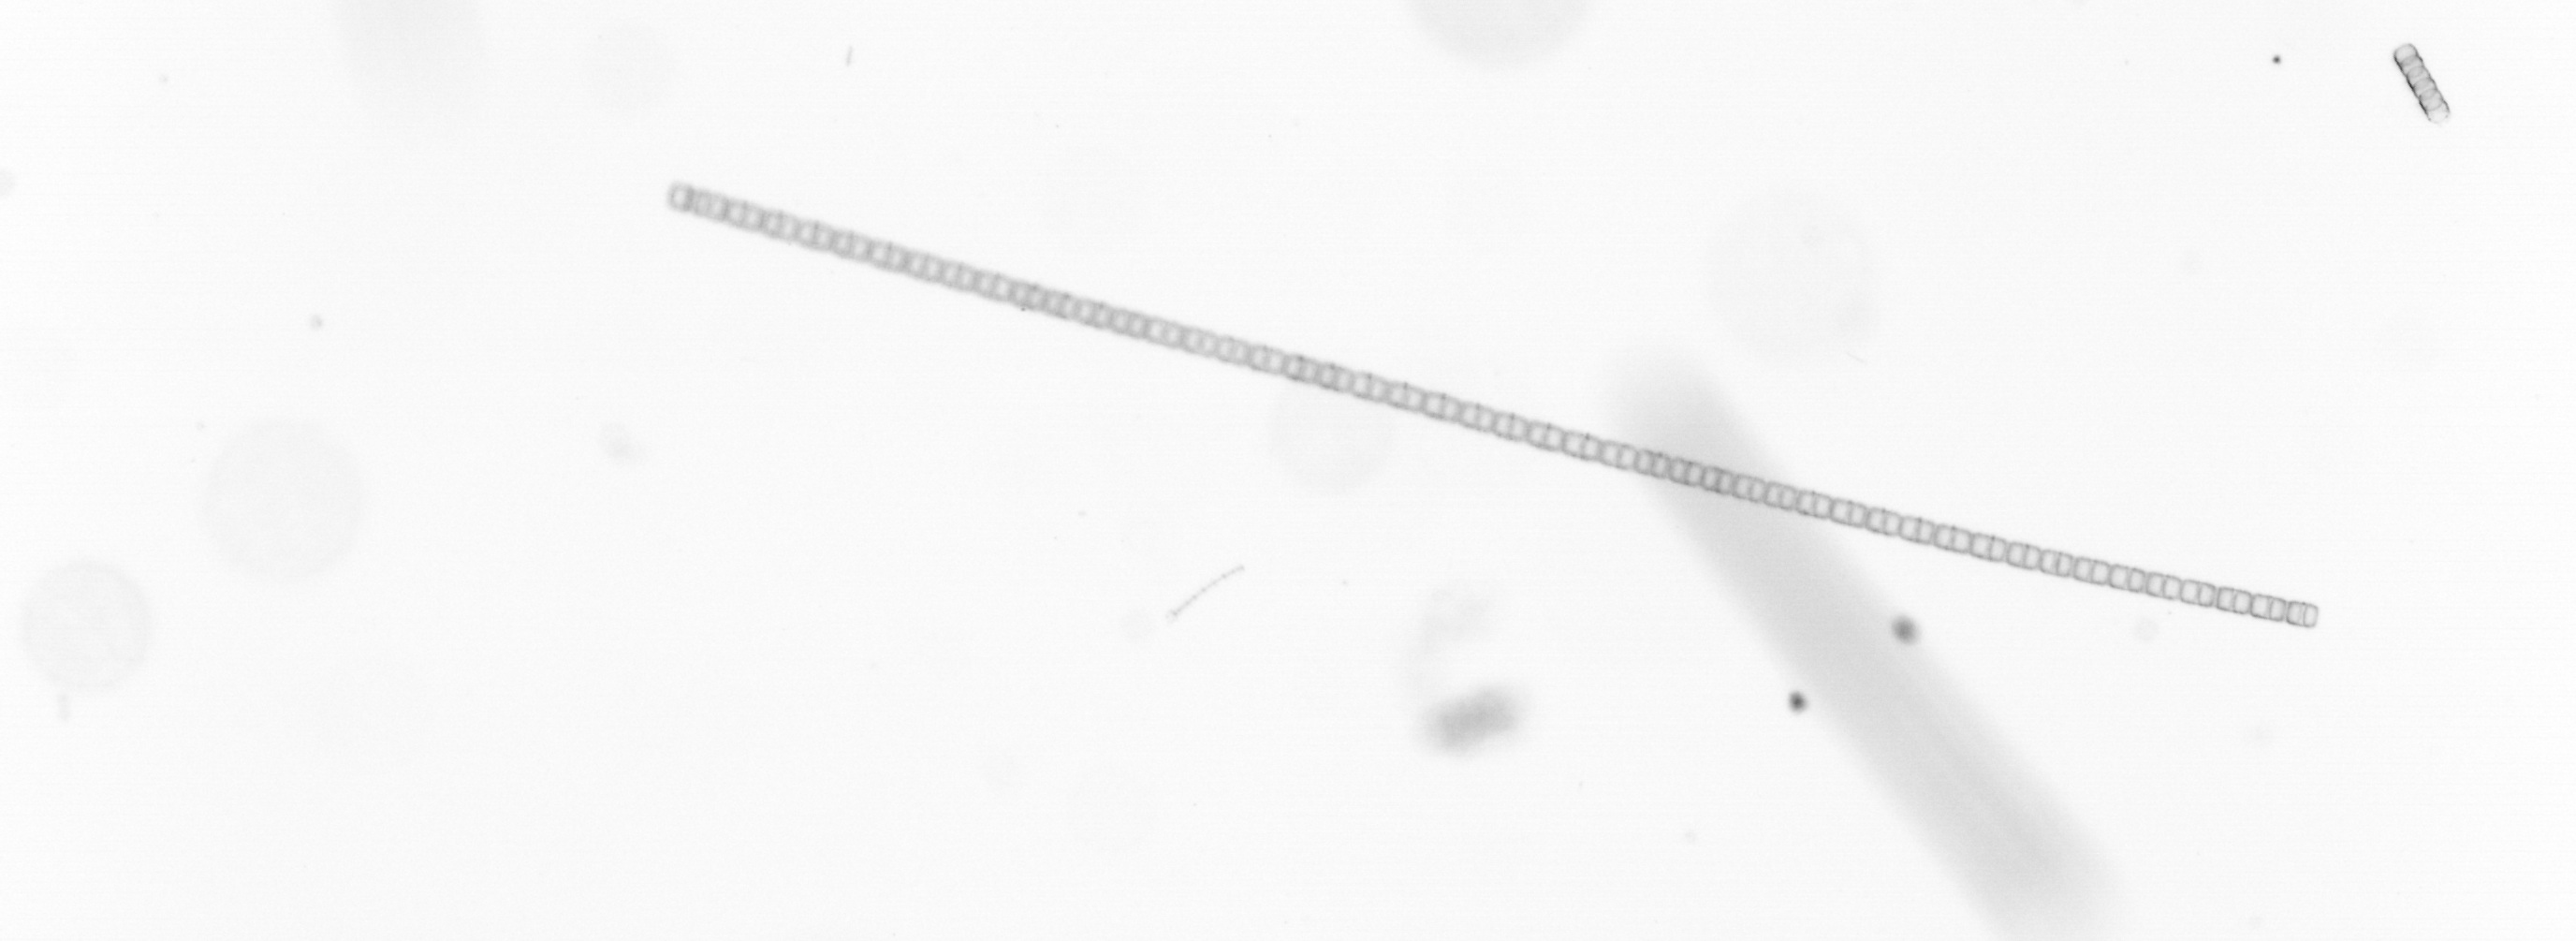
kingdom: Chromista
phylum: Ochrophyta
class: Bacillariophyceae
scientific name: Bacillariophyceae
